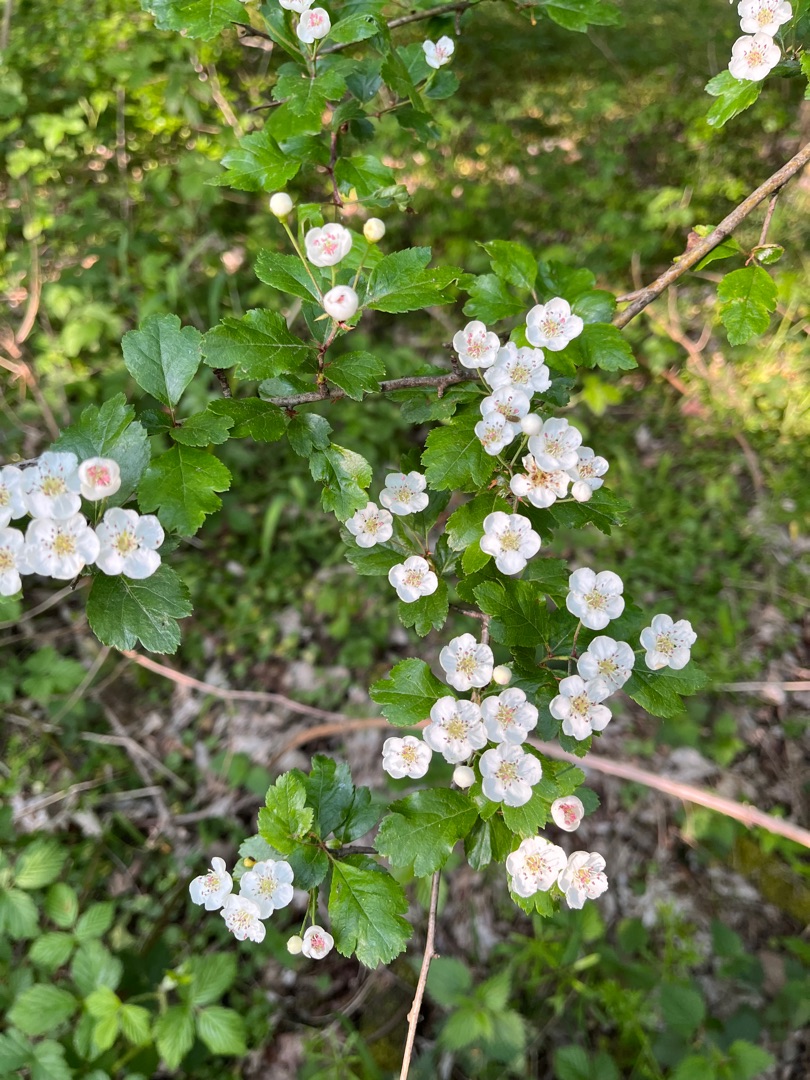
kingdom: Plantae
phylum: Tracheophyta
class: Magnoliopsida
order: Rosales
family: Rosaceae
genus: Crataegus
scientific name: Crataegus laevigata
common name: Almindelig hvidtjørn
